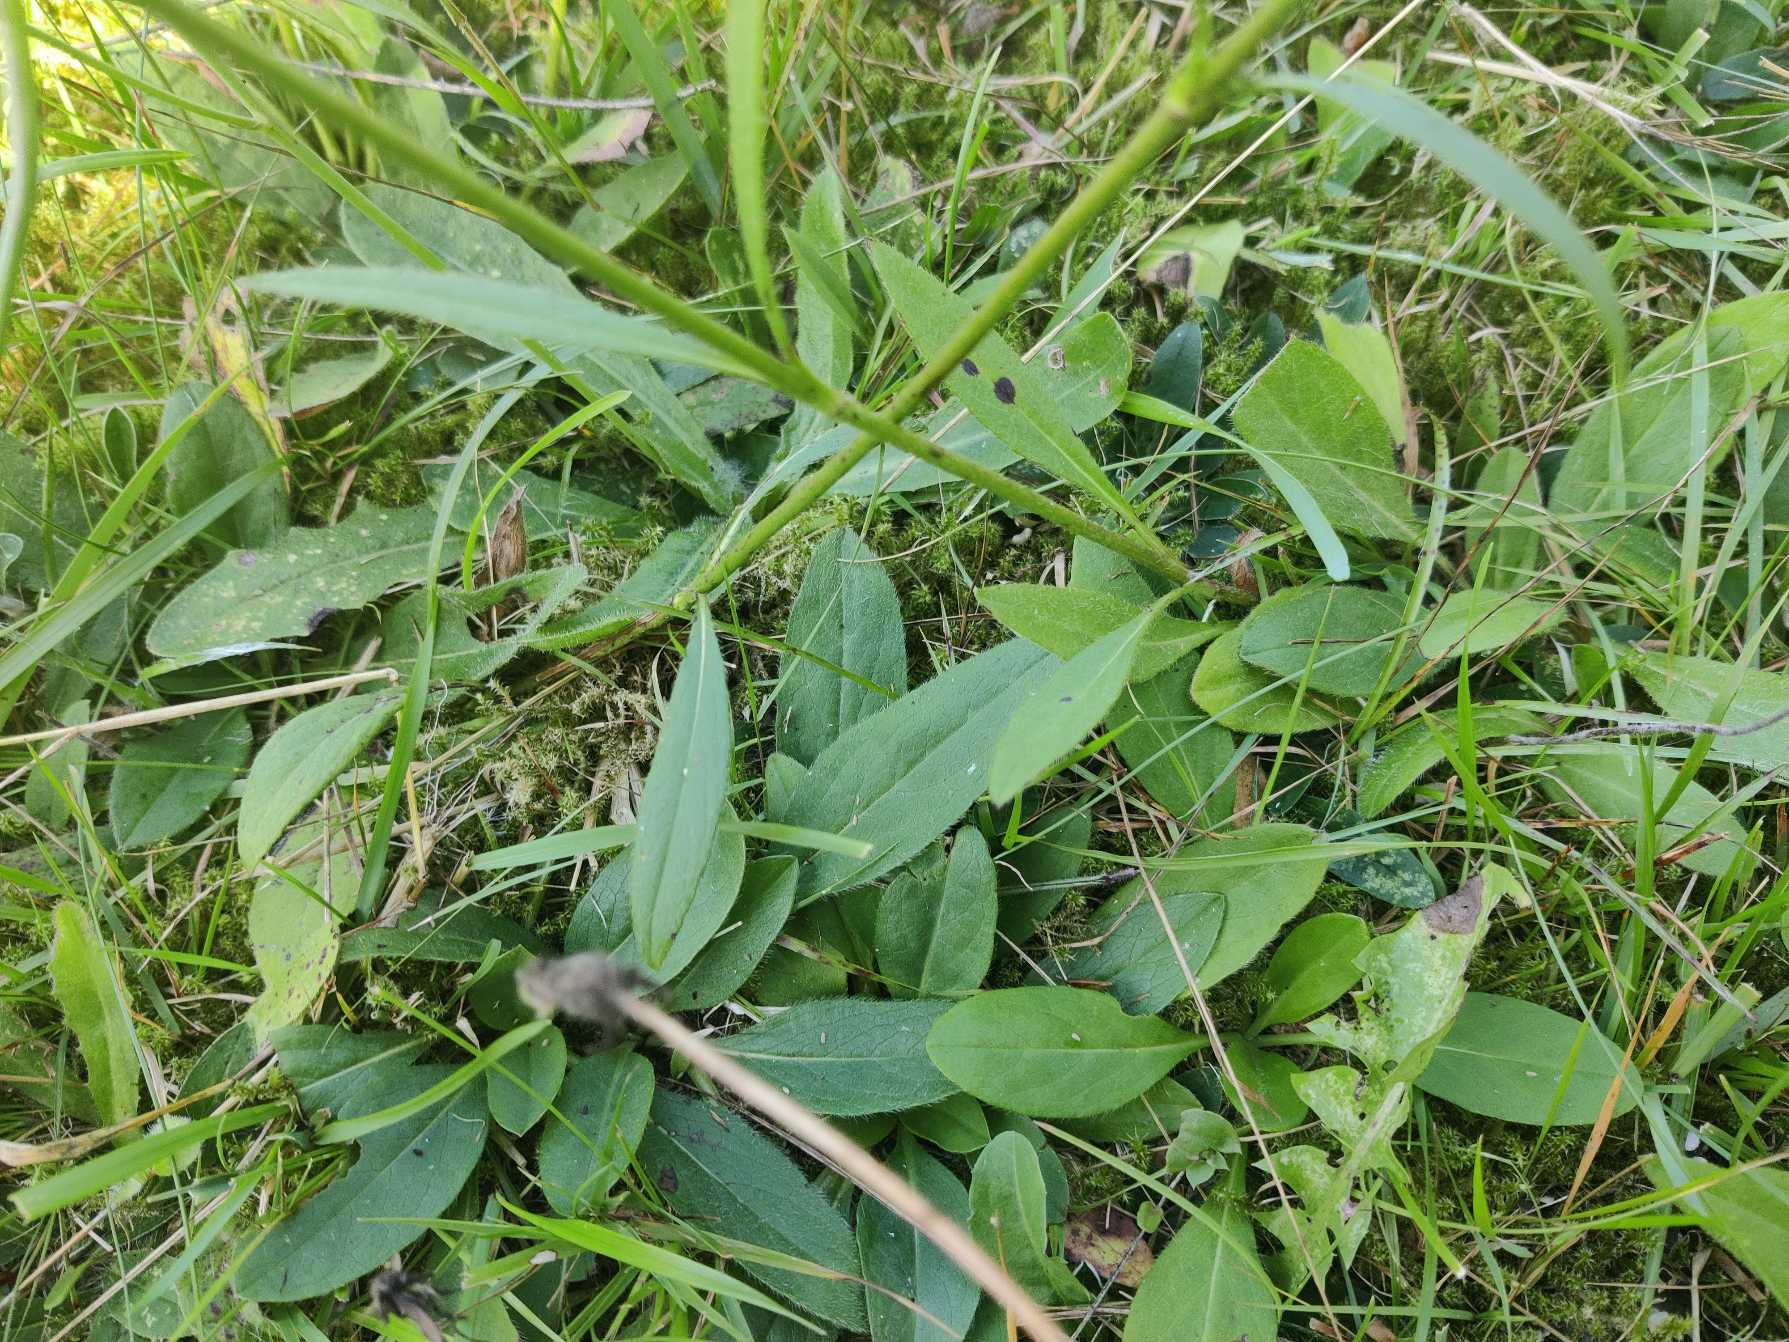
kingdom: Plantae
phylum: Tracheophyta
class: Magnoliopsida
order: Dipsacales
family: Caprifoliaceae
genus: Succisa
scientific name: Succisa pratensis
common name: Djævelsbid
